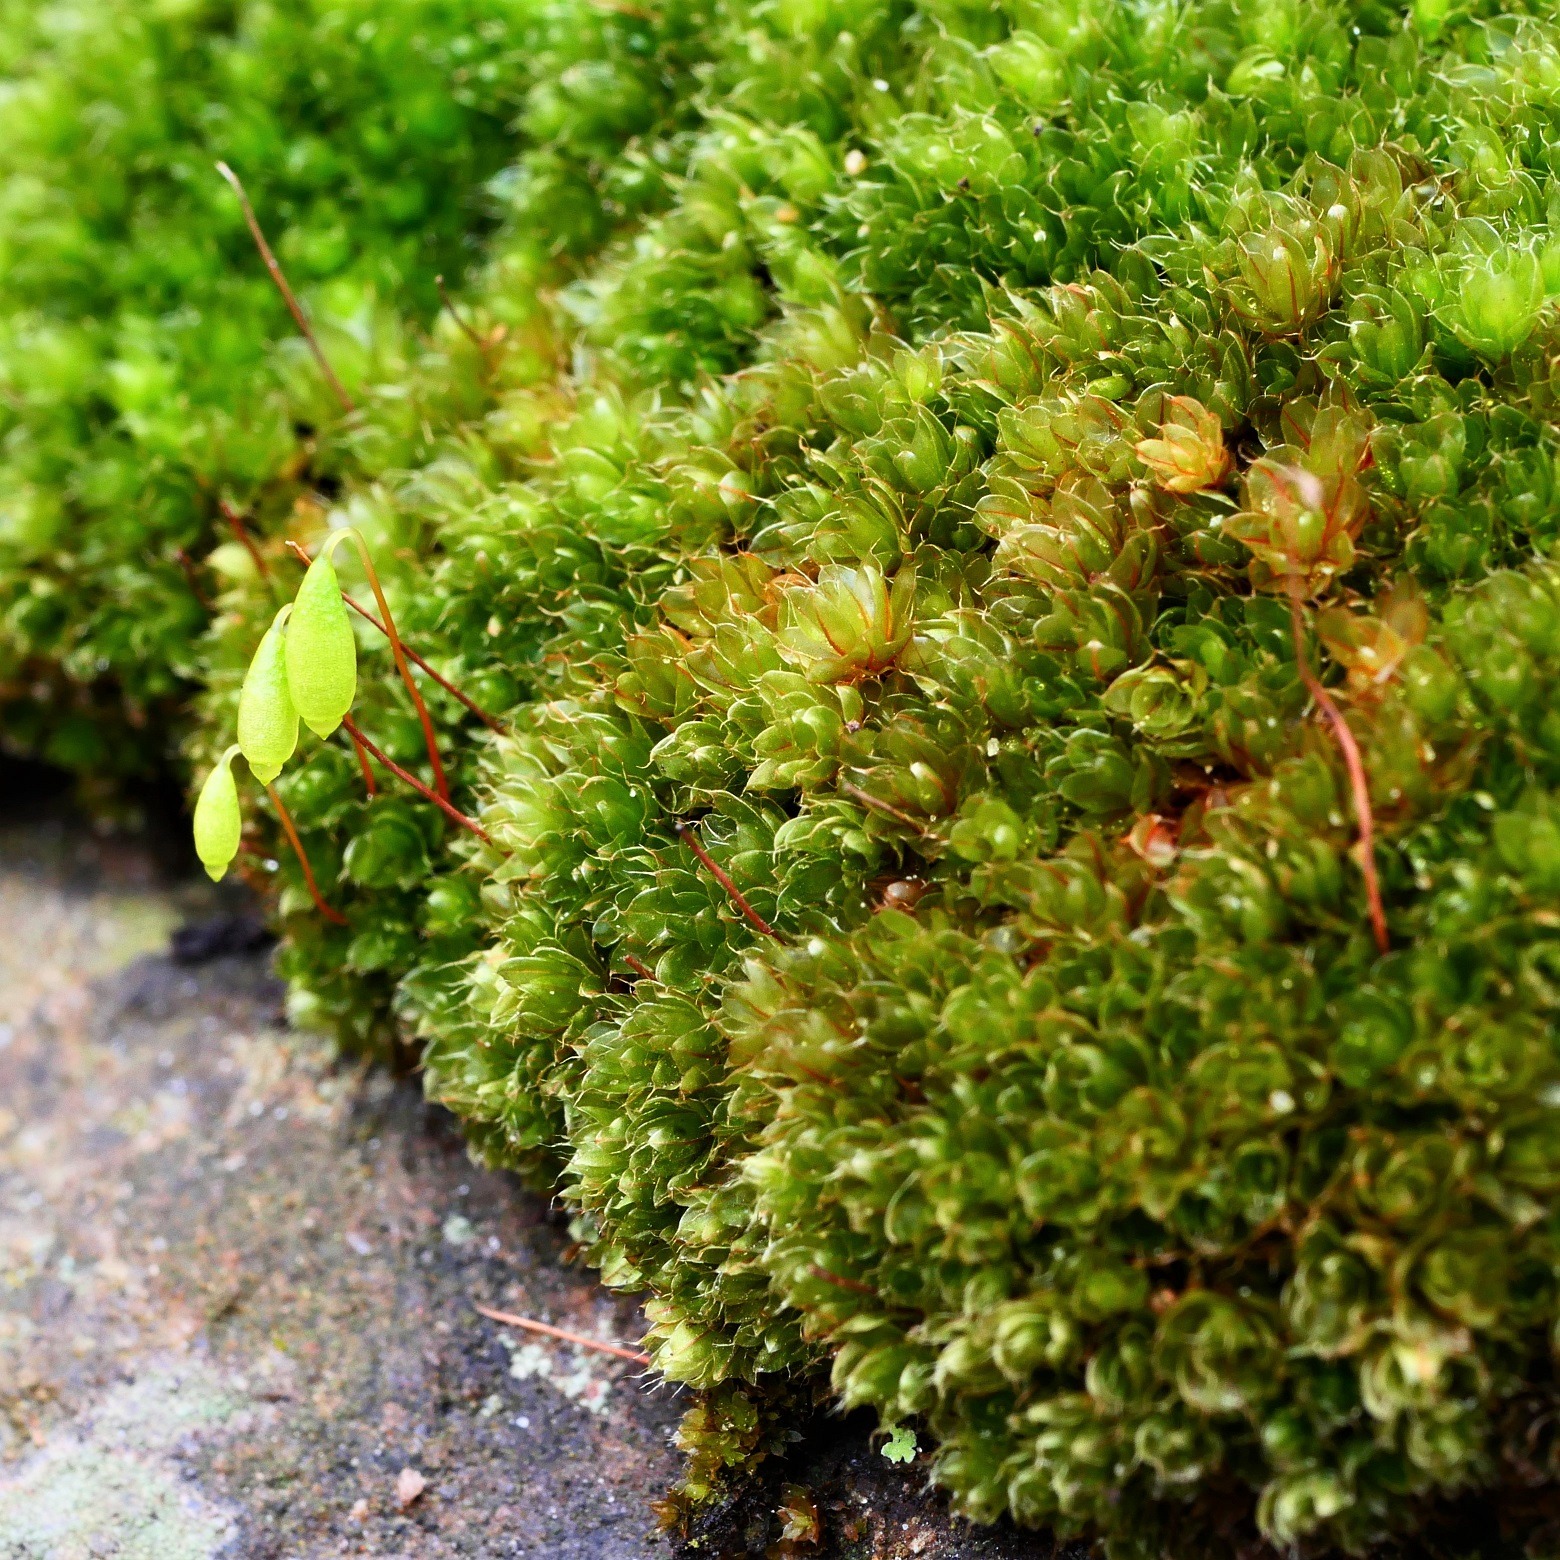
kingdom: Plantae
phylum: Bryophyta
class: Bryopsida
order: Bryales
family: Bryaceae
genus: Rosulabryum
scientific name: Rosulabryum capillare
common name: Hårspidset bryum
